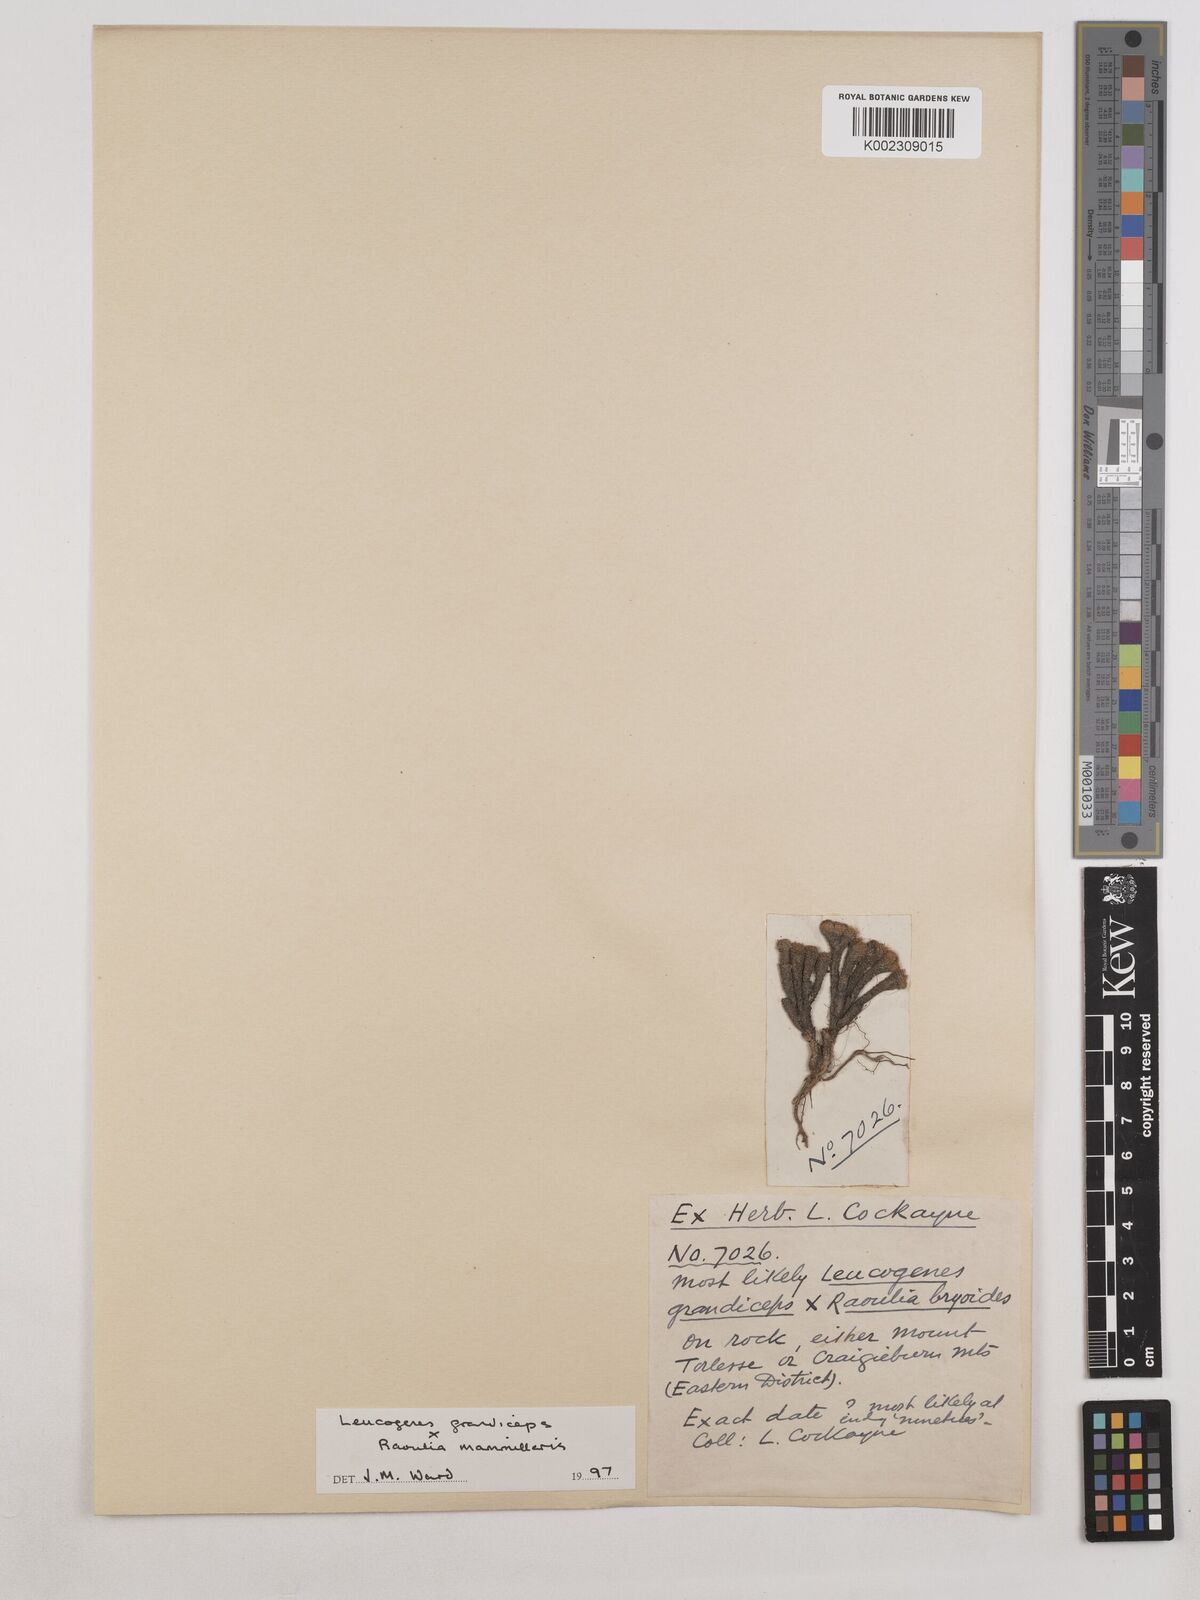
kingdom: Plantae
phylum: Tracheophyta
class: Magnoliopsida
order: Asterales
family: Asteraceae
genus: Leucogenes
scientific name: Leucogenes grandiceps
